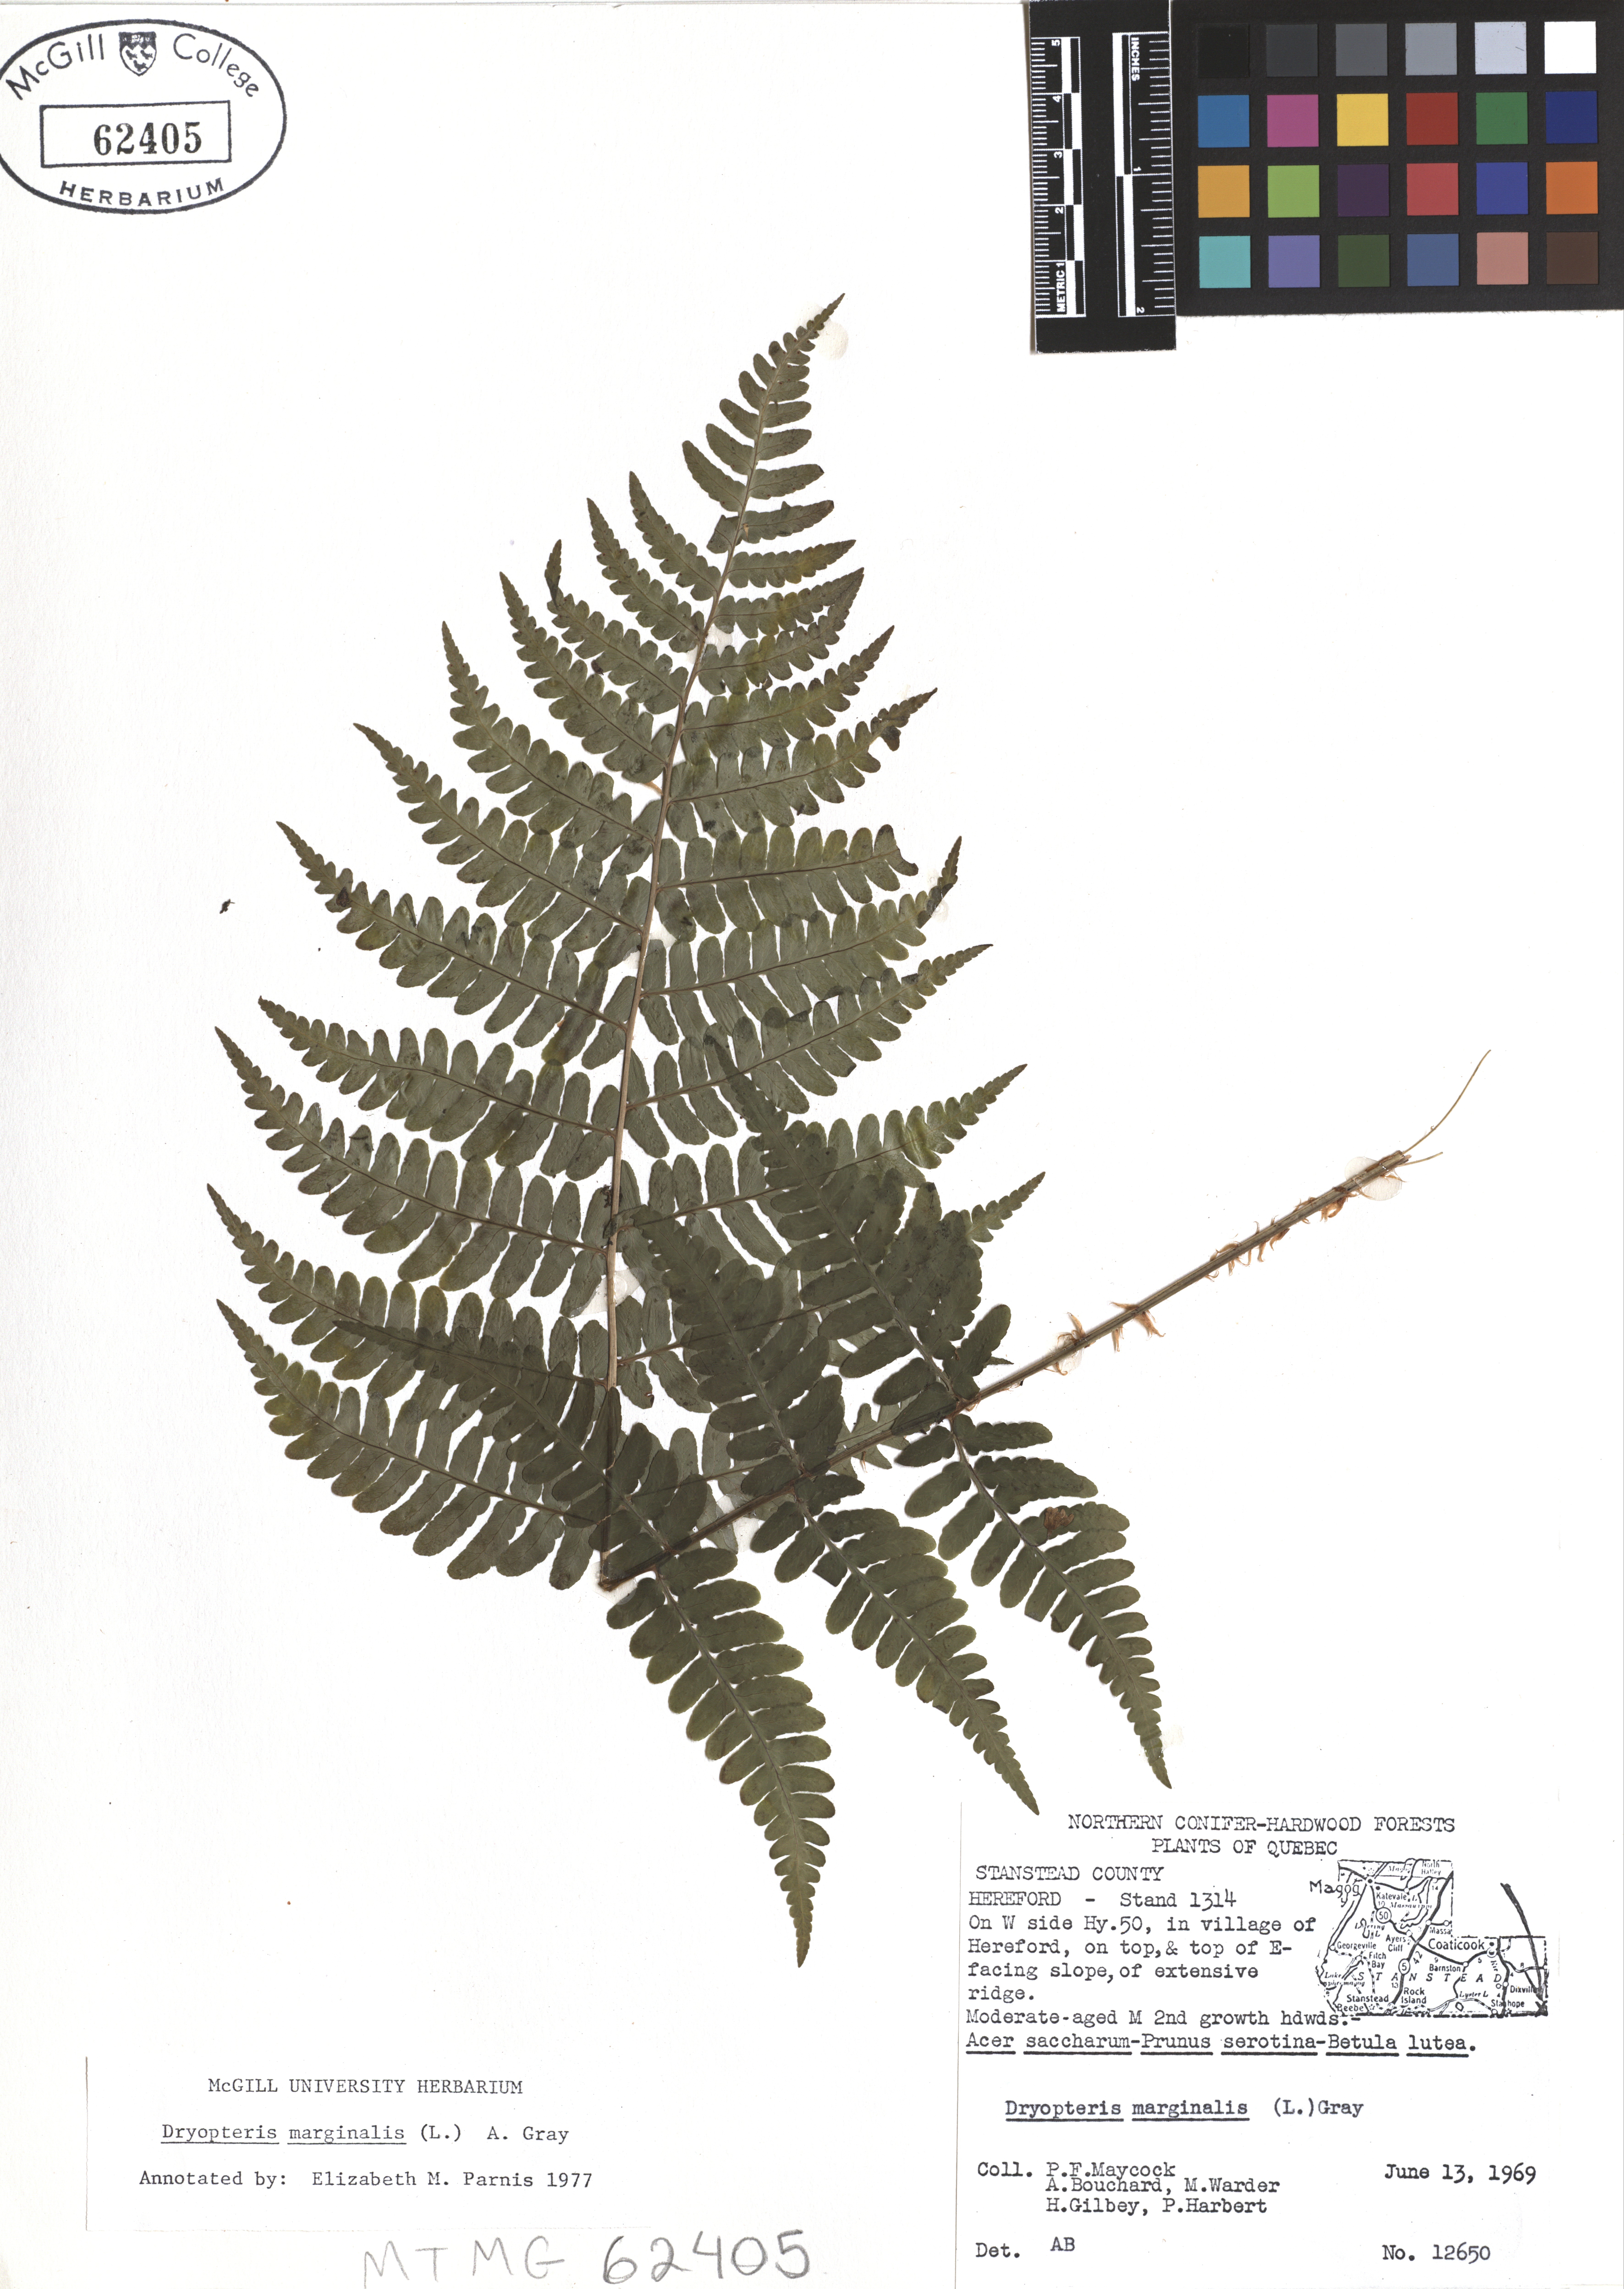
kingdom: Plantae
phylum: Tracheophyta
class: Polypodiopsida
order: Polypodiales
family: Dryopteridaceae
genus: Dryopteris
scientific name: Dryopteris marginalis
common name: Marginal wood fern
